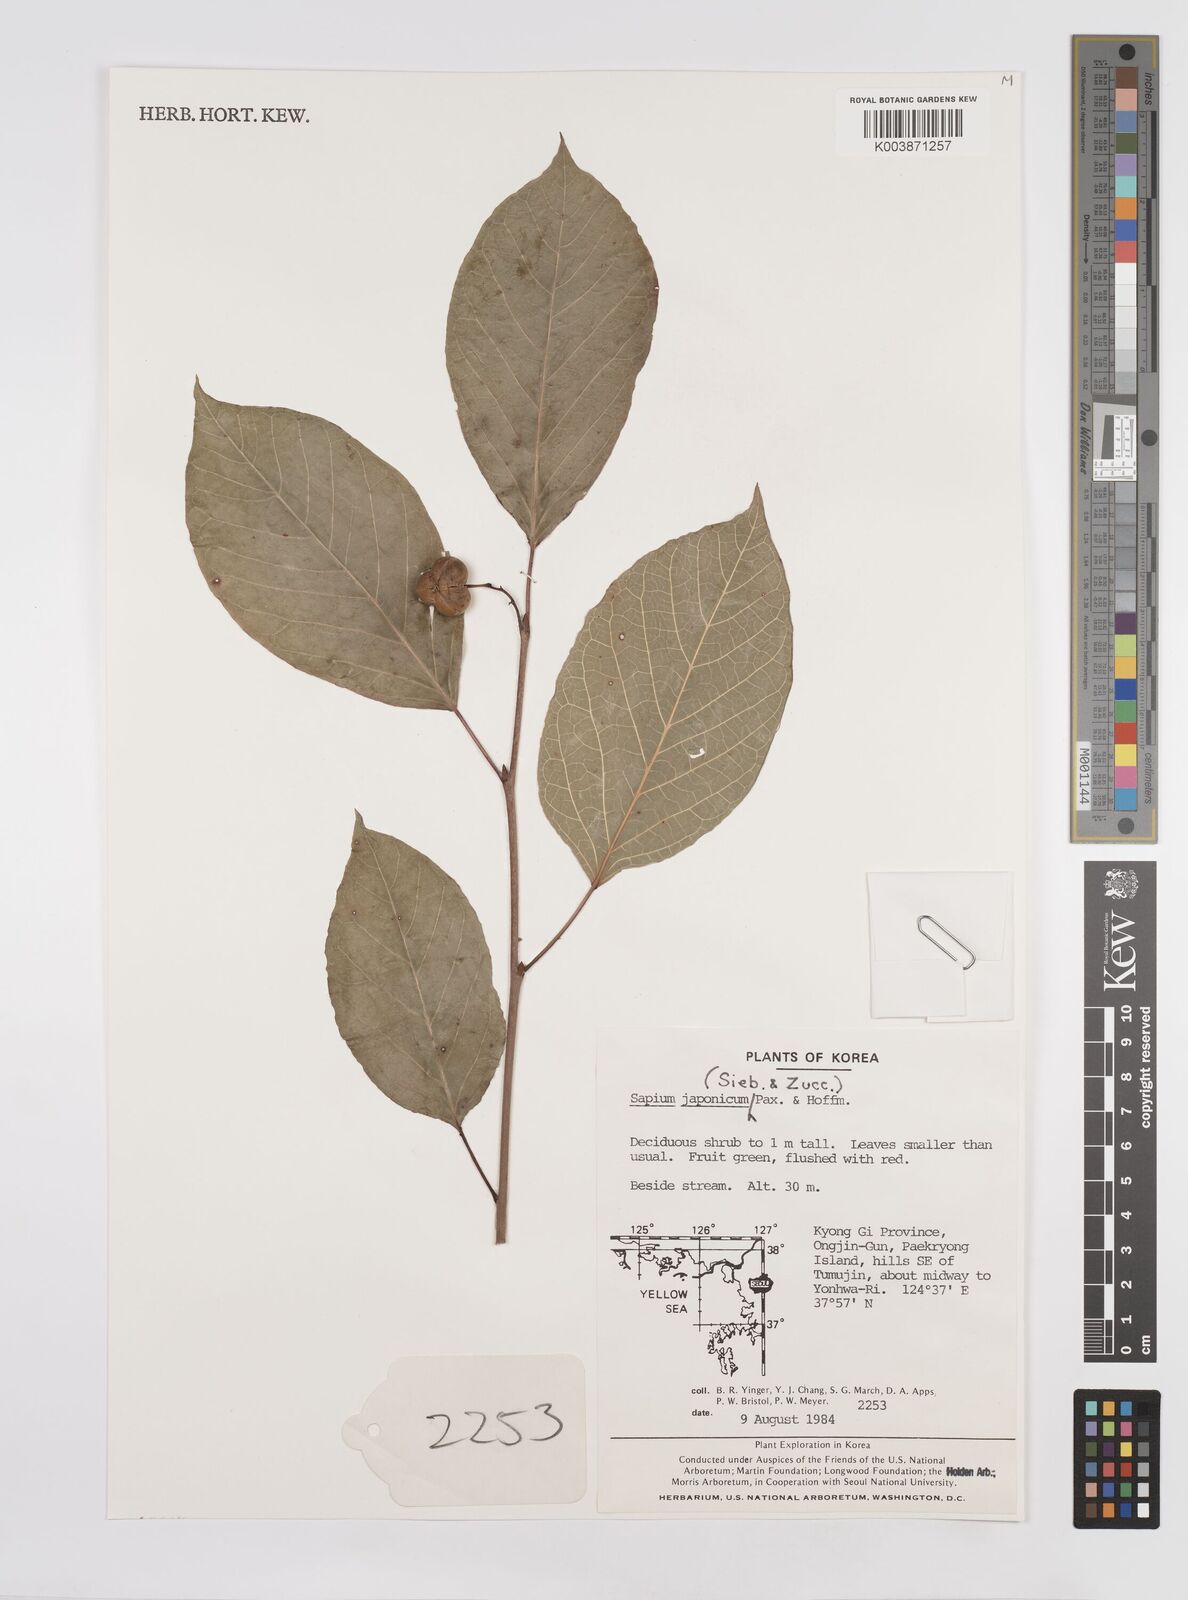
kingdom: Plantae
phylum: Tracheophyta
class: Magnoliopsida
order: Malpighiales
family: Euphorbiaceae
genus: Neoshirakia
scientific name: Neoshirakia japonica
